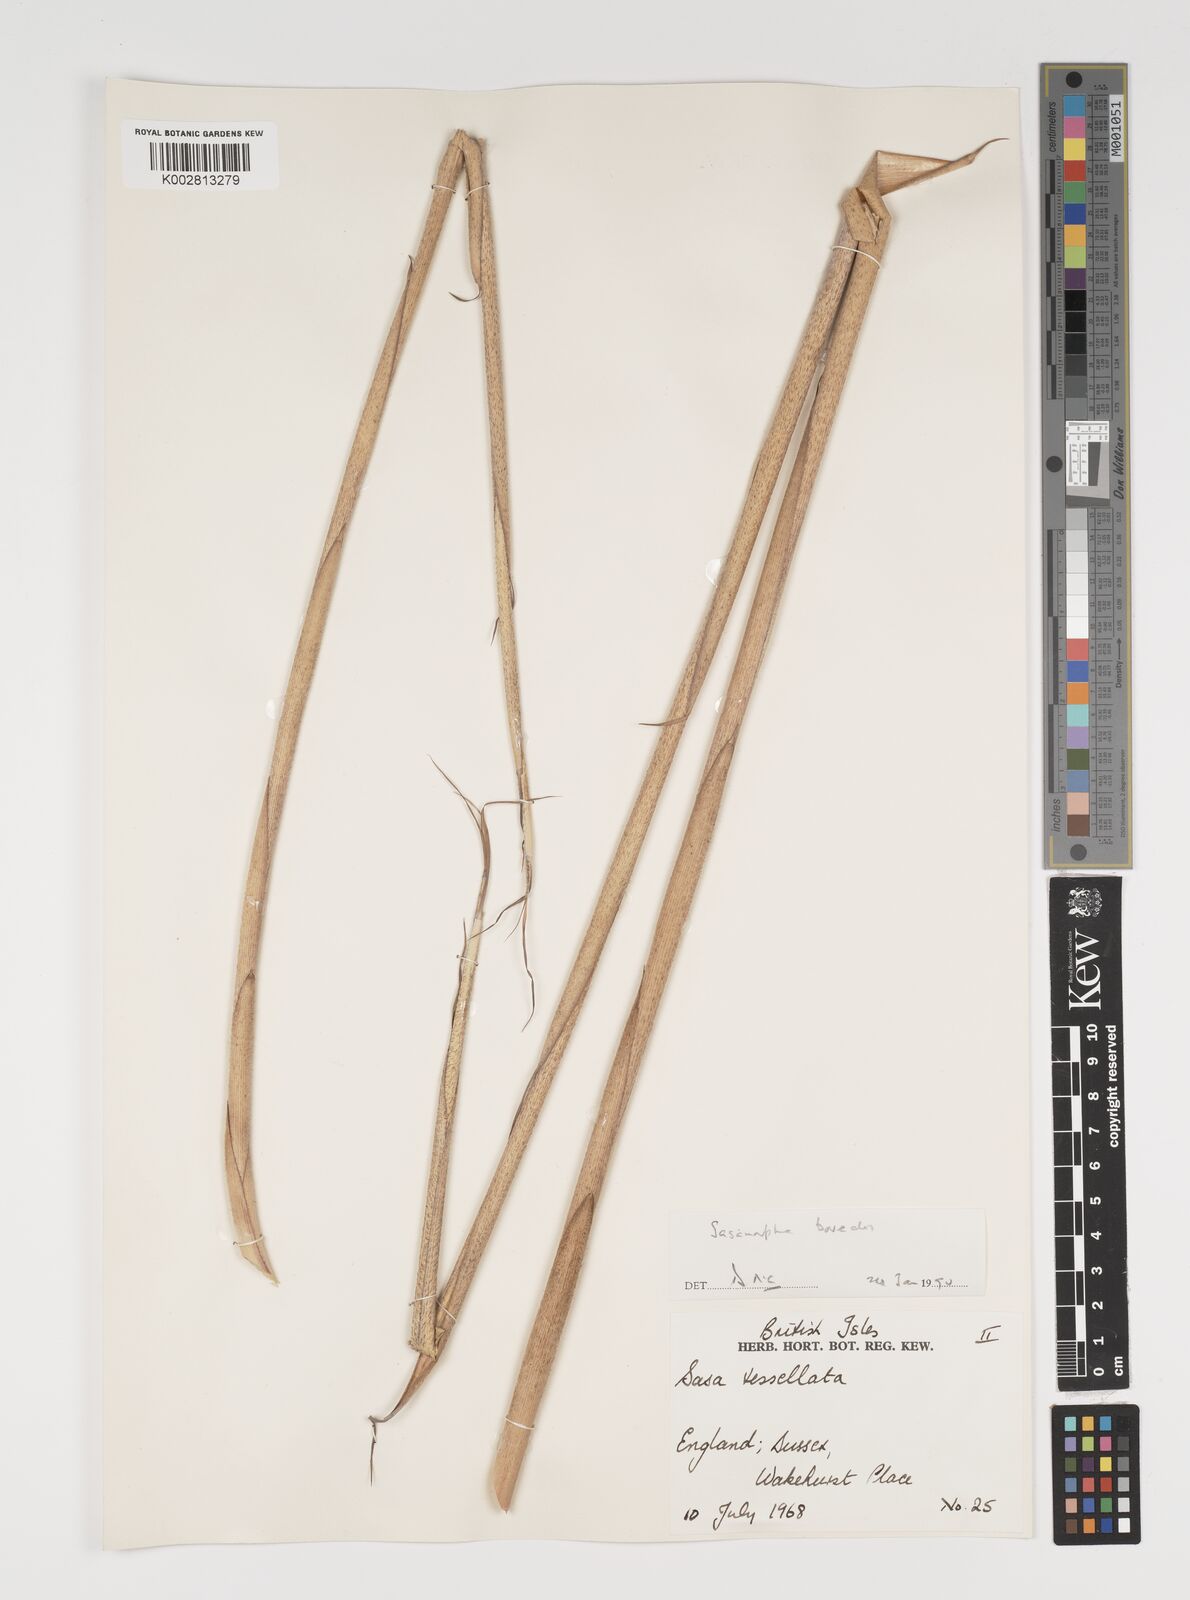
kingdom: Plantae
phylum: Tracheophyta
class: Liliopsida
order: Poales
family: Poaceae
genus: Sasamorpha
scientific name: Sasamorpha borealis
